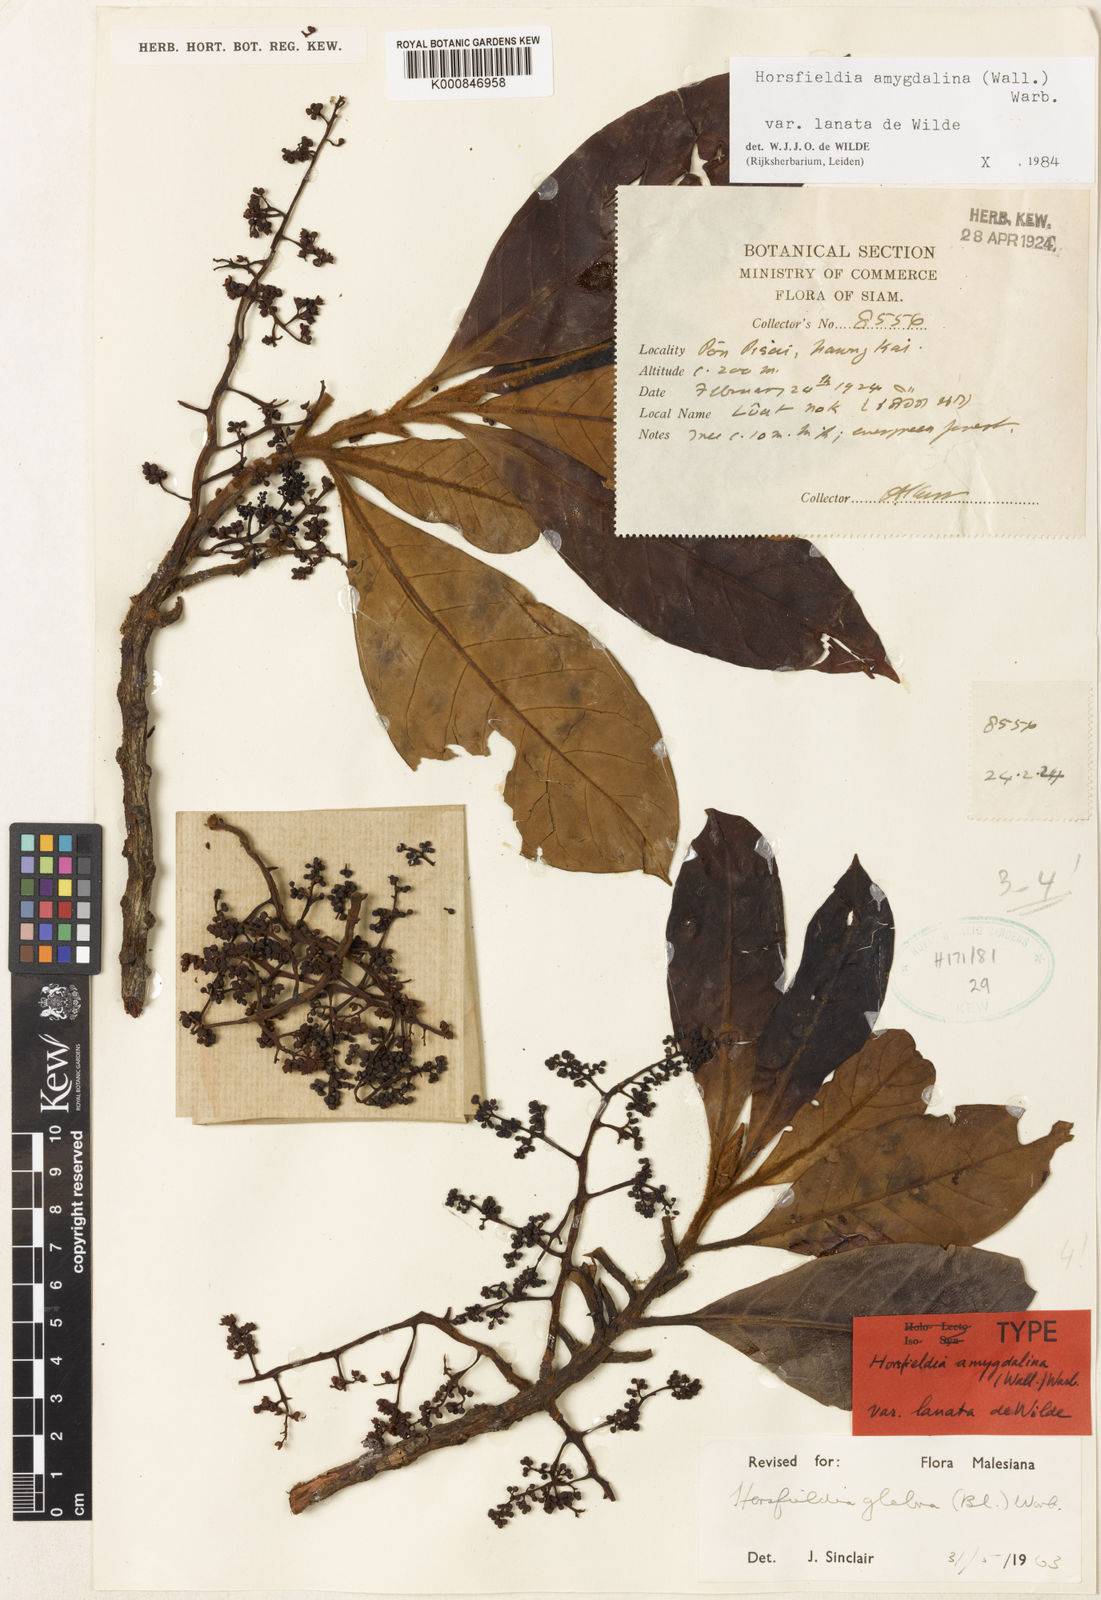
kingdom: Plantae
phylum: Tracheophyta
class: Magnoliopsida
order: Magnoliales
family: Myristicaceae
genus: Horsfieldia
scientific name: Horsfieldia amygdalina
